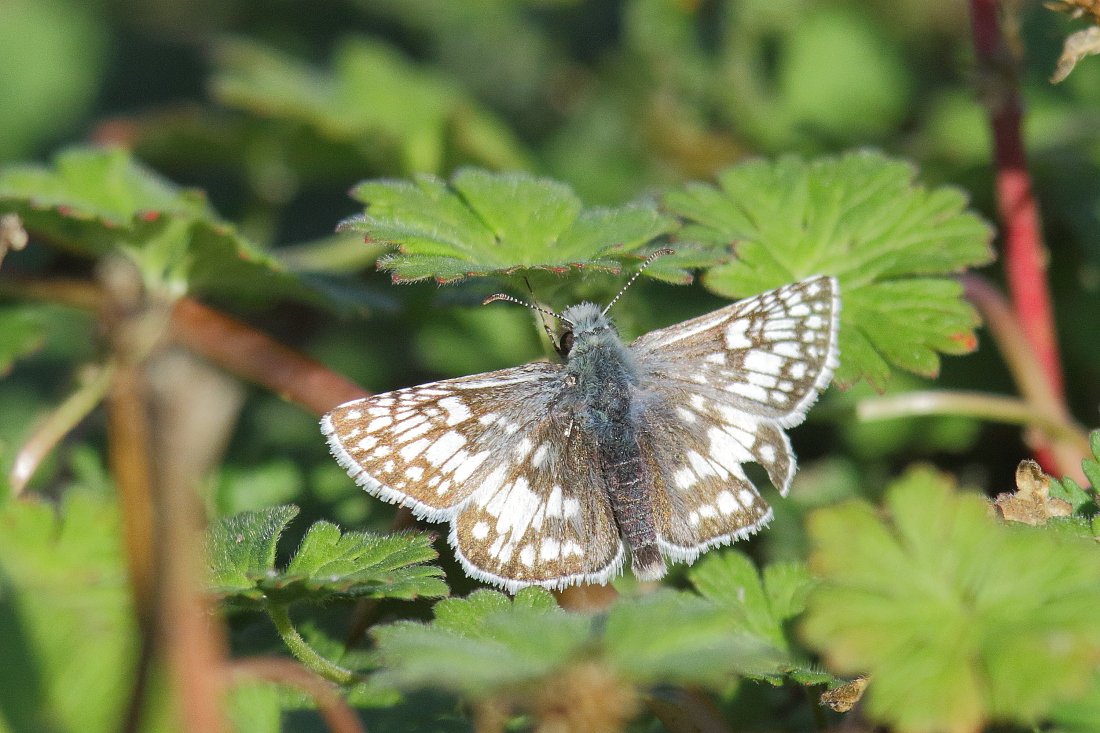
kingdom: Animalia
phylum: Arthropoda
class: Insecta
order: Lepidoptera
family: Hesperiidae
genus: Pyrgus
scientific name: Pyrgus communis
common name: Common Checkered-Skipper
